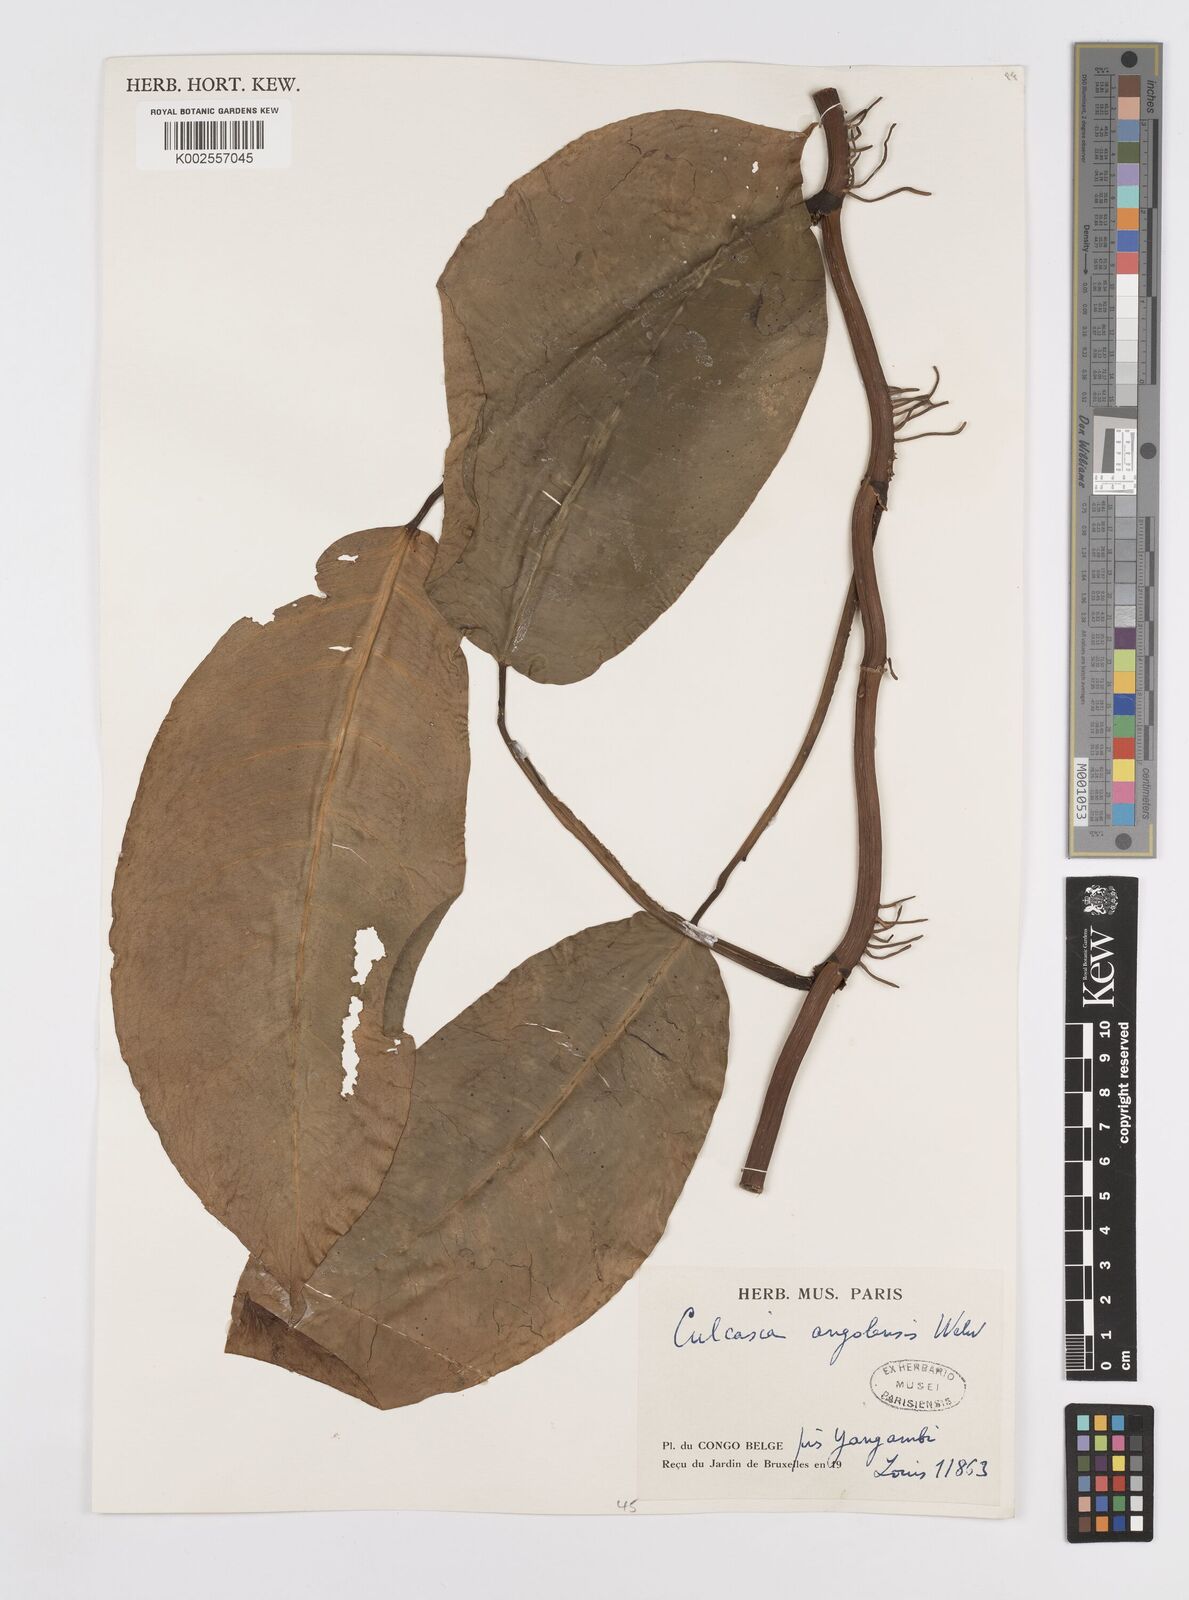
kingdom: Plantae
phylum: Tracheophyta
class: Liliopsida
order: Alismatales
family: Araceae
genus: Culcasia
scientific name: Culcasia angolensis
